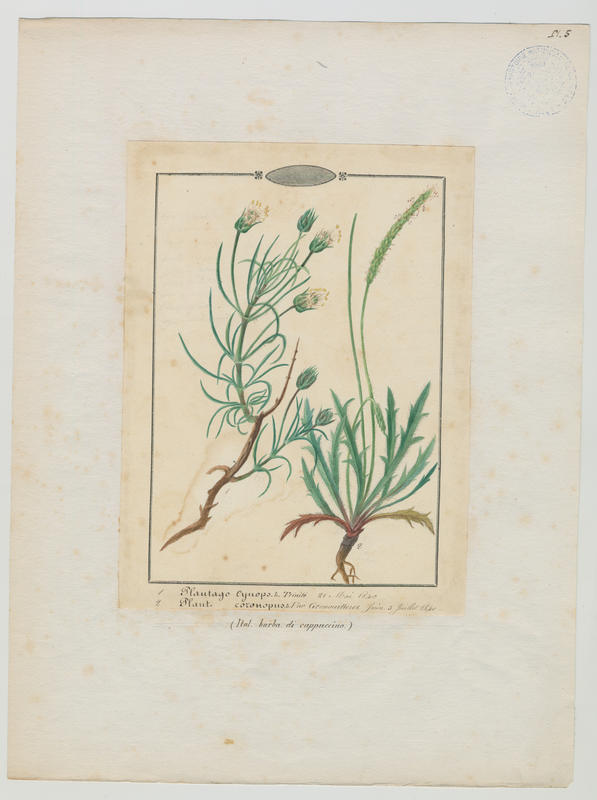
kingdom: Plantae
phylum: Tracheophyta
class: Magnoliopsida
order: Lamiales
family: Plantaginaceae
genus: Plantago
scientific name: Plantago coronopus
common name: Buck's-horn plantain
